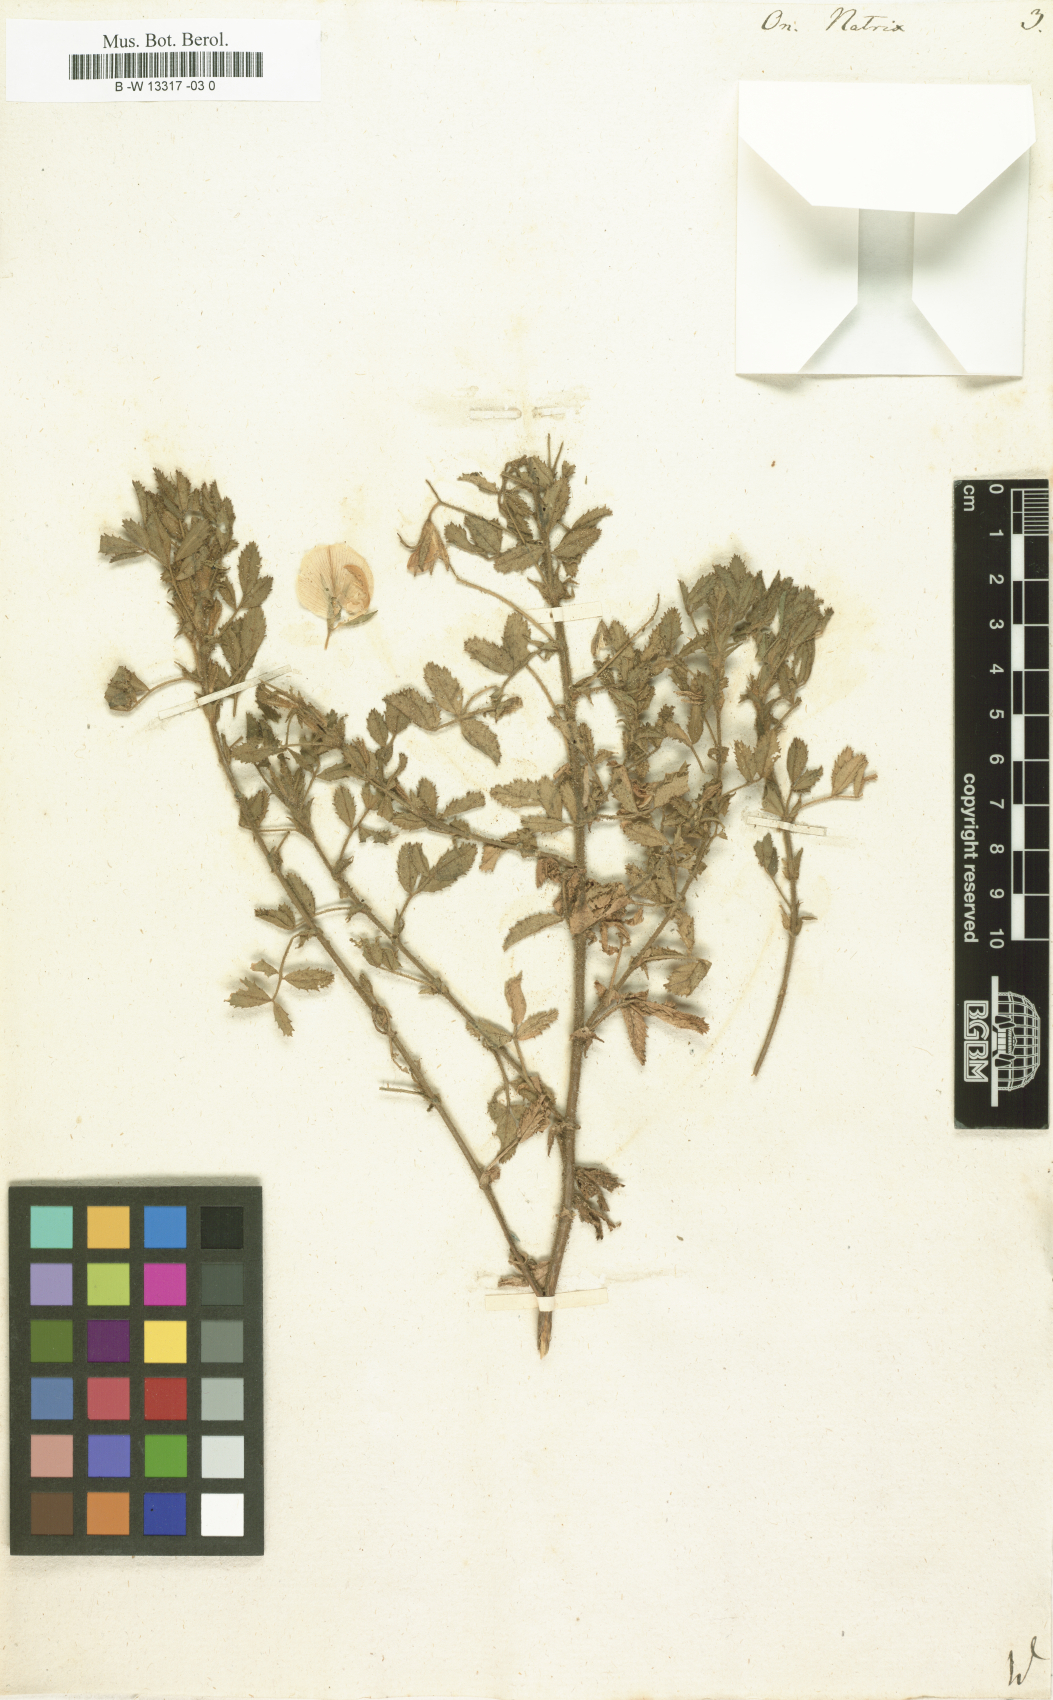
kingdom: Plantae
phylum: Tracheophyta
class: Magnoliopsida
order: Fabales
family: Fabaceae
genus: Ononis
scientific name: Ononis natrix
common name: Yellow restharrow
